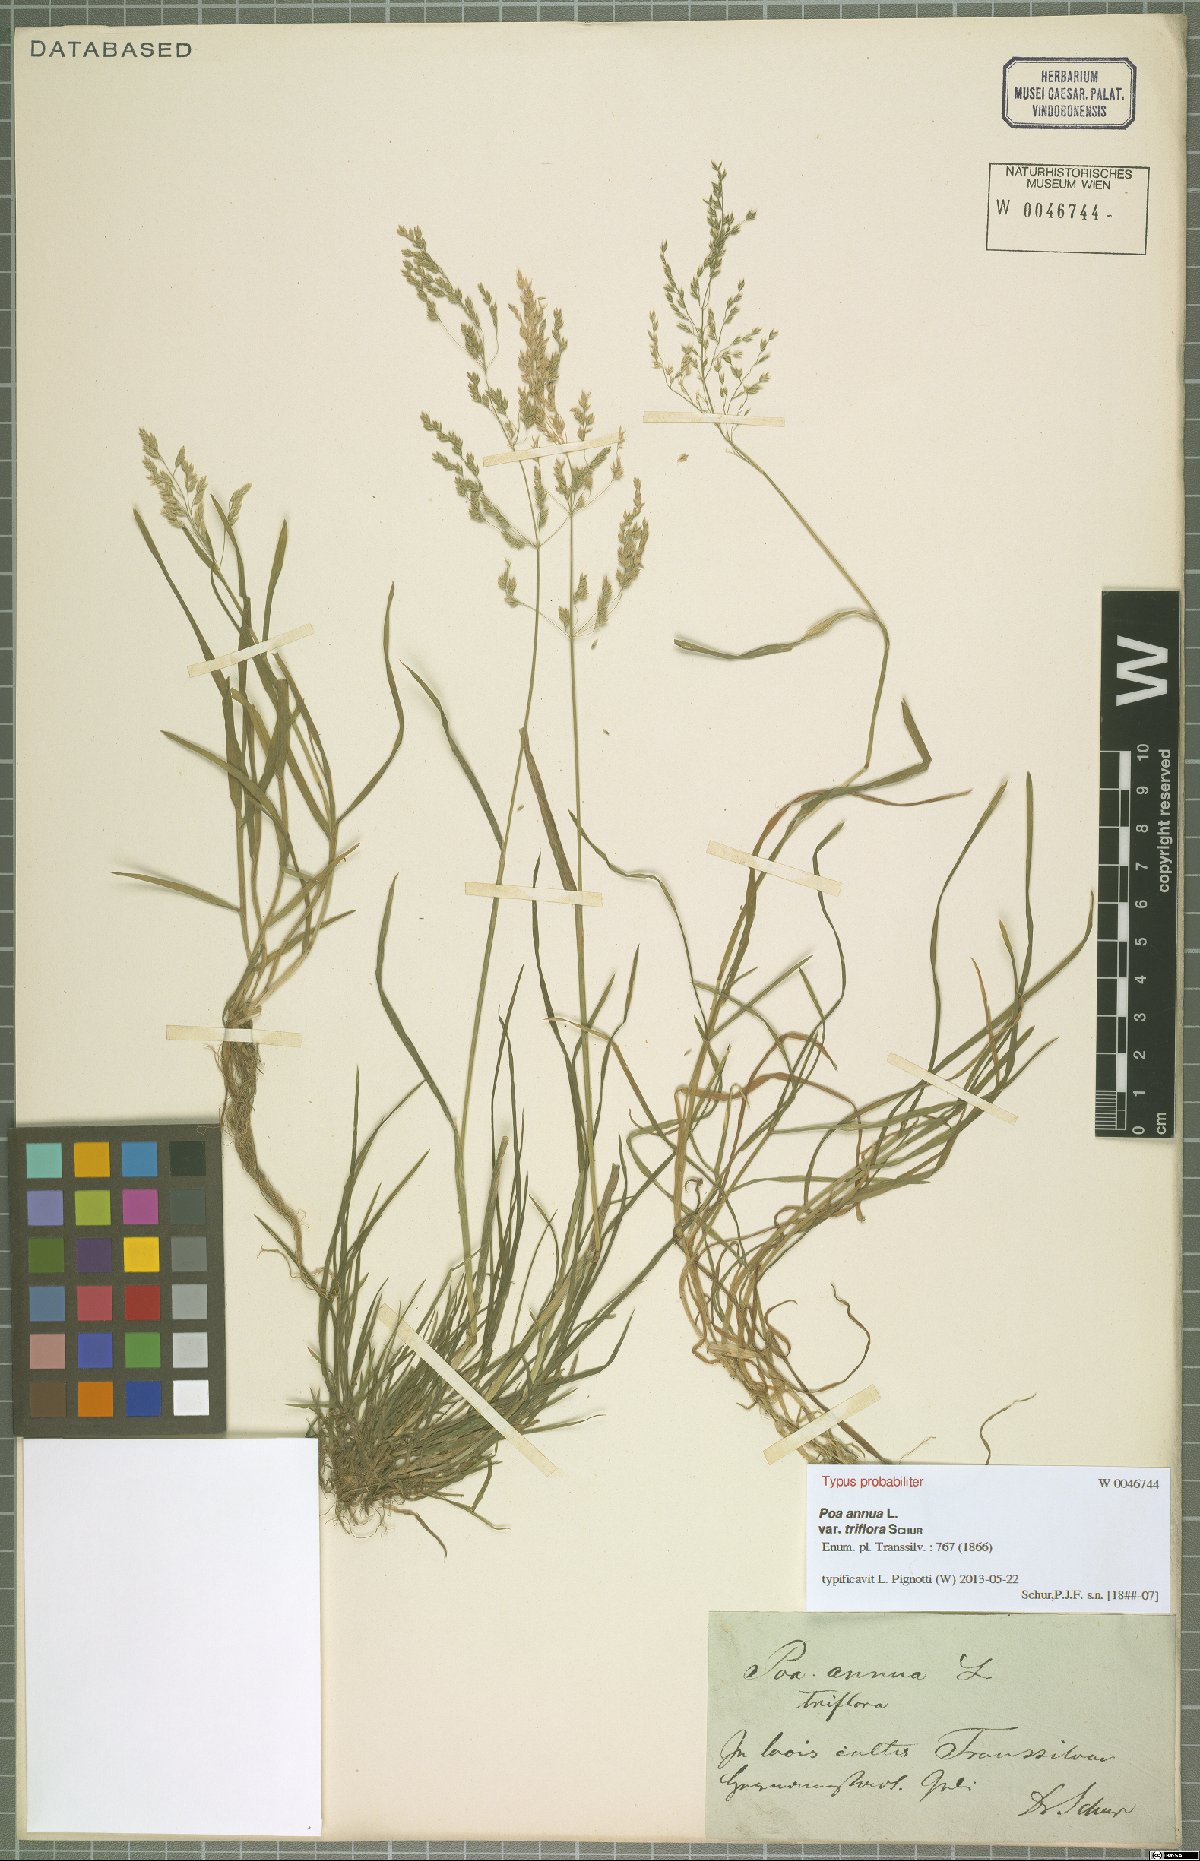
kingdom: Plantae
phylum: Tracheophyta
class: Liliopsida
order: Poales
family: Poaceae
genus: Poa
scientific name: Poa annua
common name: Annual bluegrass
